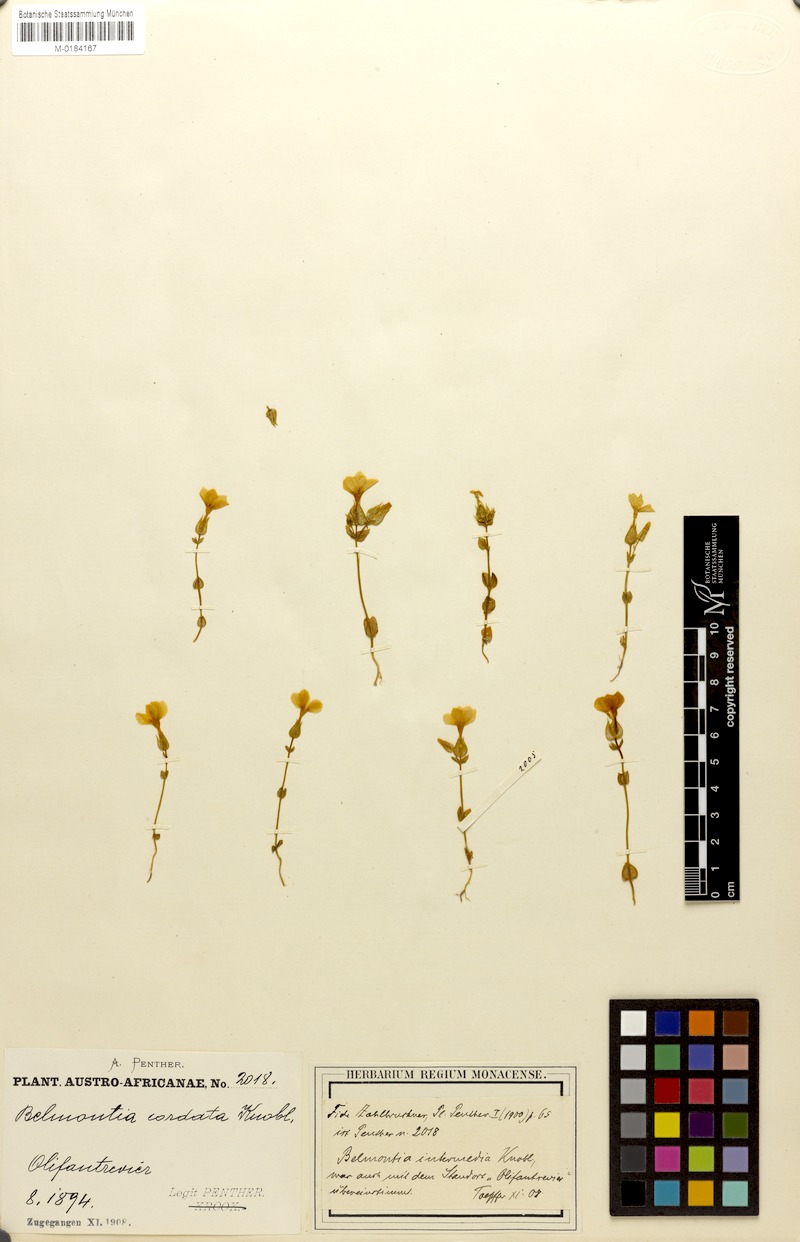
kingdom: Plantae
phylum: Tracheophyta
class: Magnoliopsida
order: Gentianales
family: Gentianaceae
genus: Sebaea
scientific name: Sebaea exacoides
